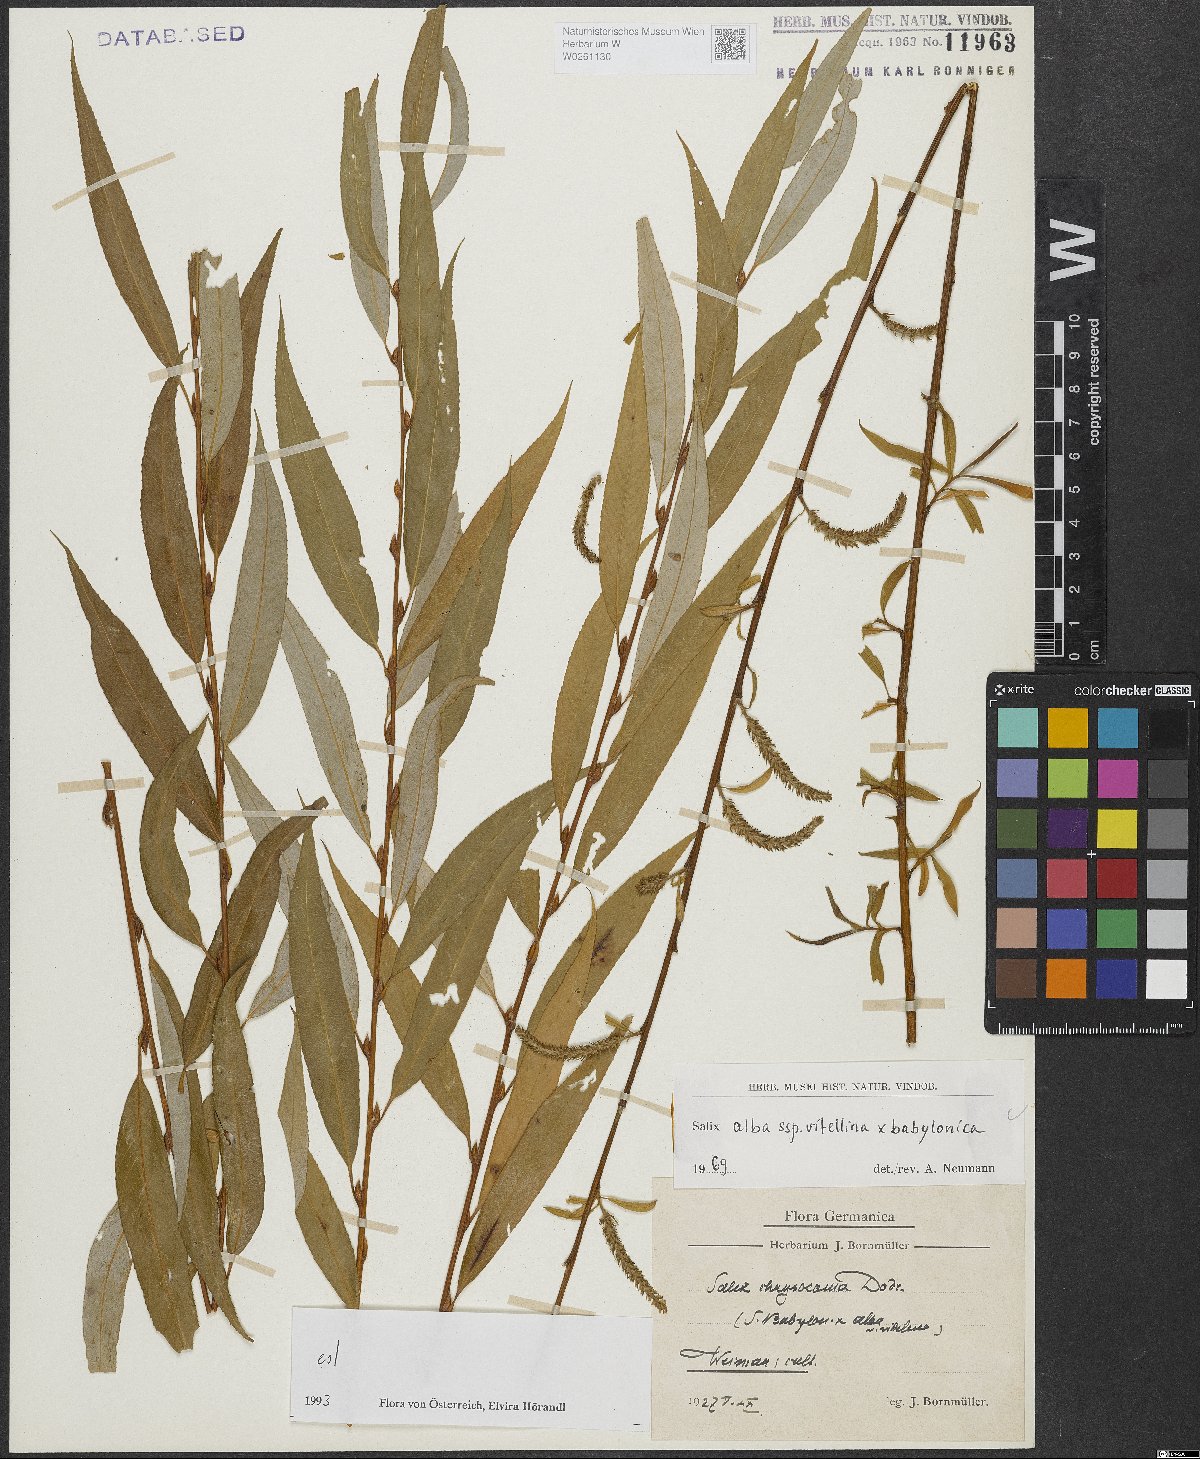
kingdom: Plantae
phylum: Tracheophyta
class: Magnoliopsida
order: Malpighiales
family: Salicaceae
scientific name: Salicaceae
